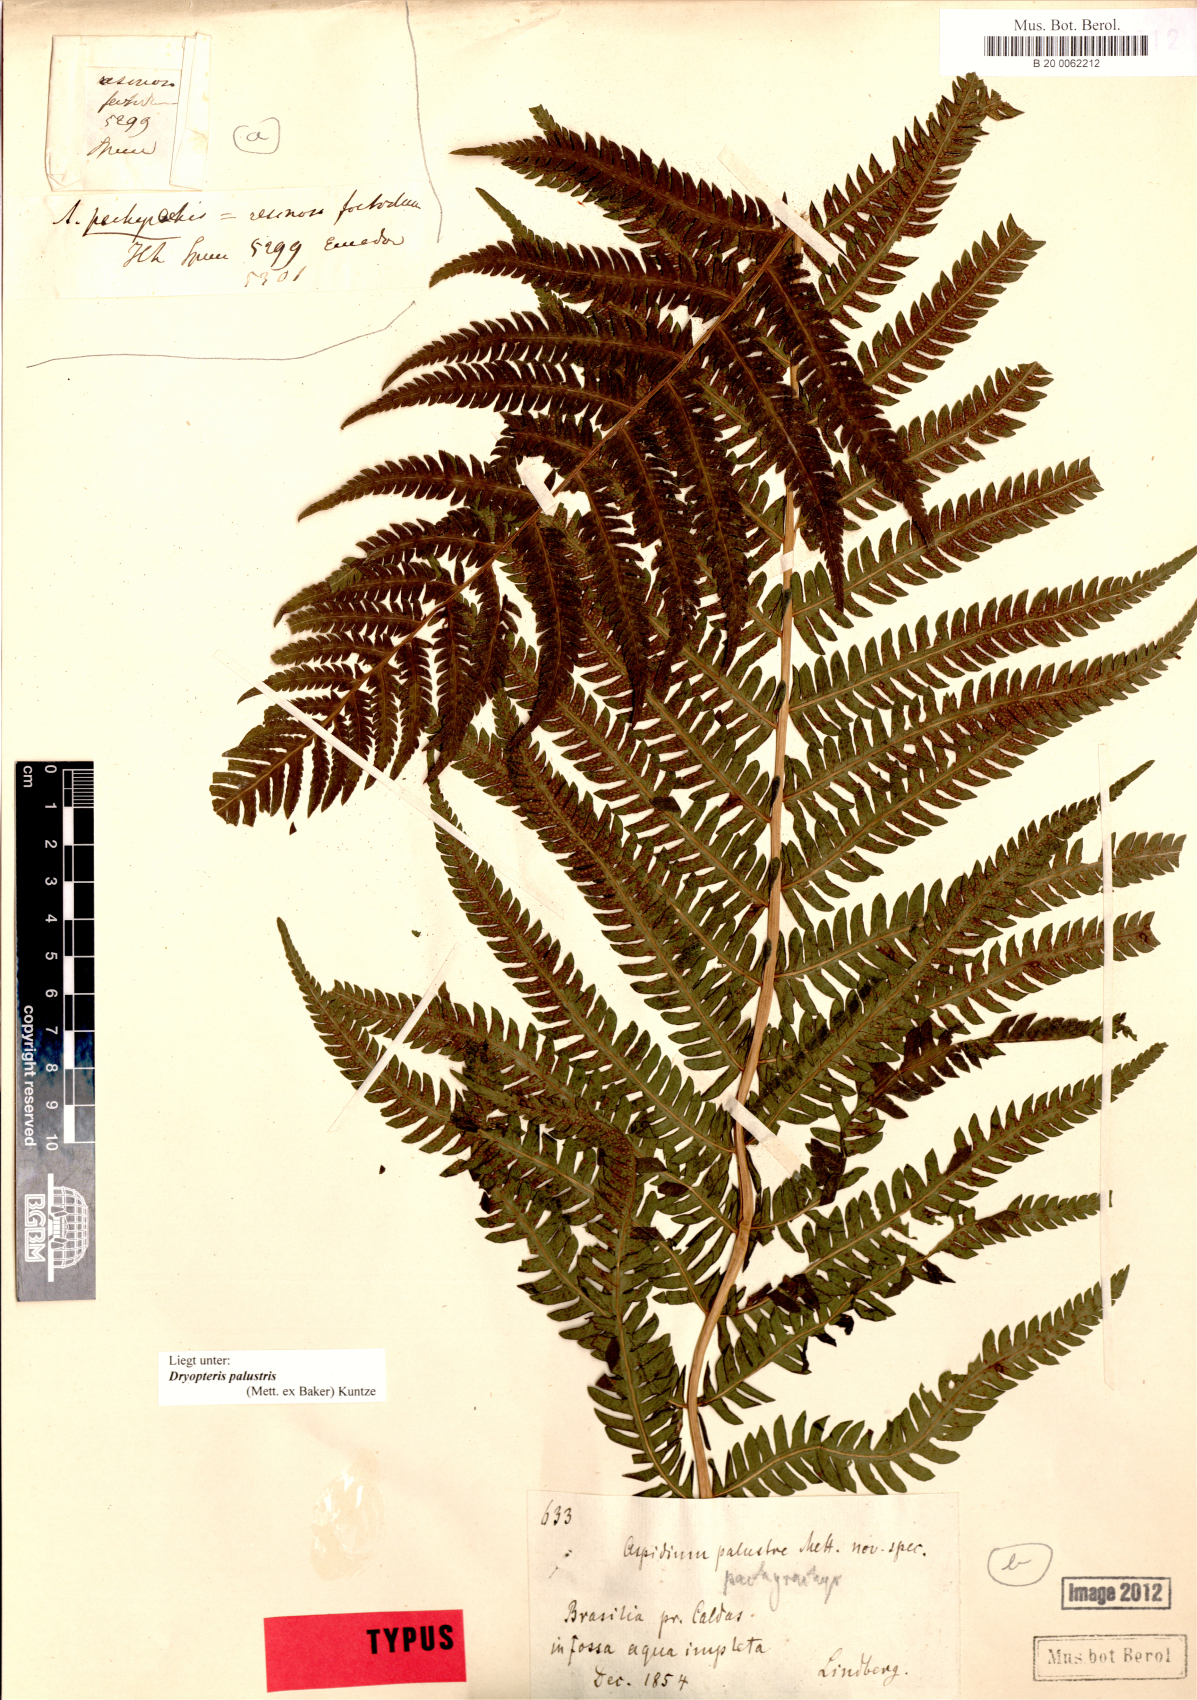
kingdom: Plantae
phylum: Tracheophyta
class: Polypodiopsida
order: Polypodiales
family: Thelypteridaceae
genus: Amauropelta
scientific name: Amauropelta metteniana
